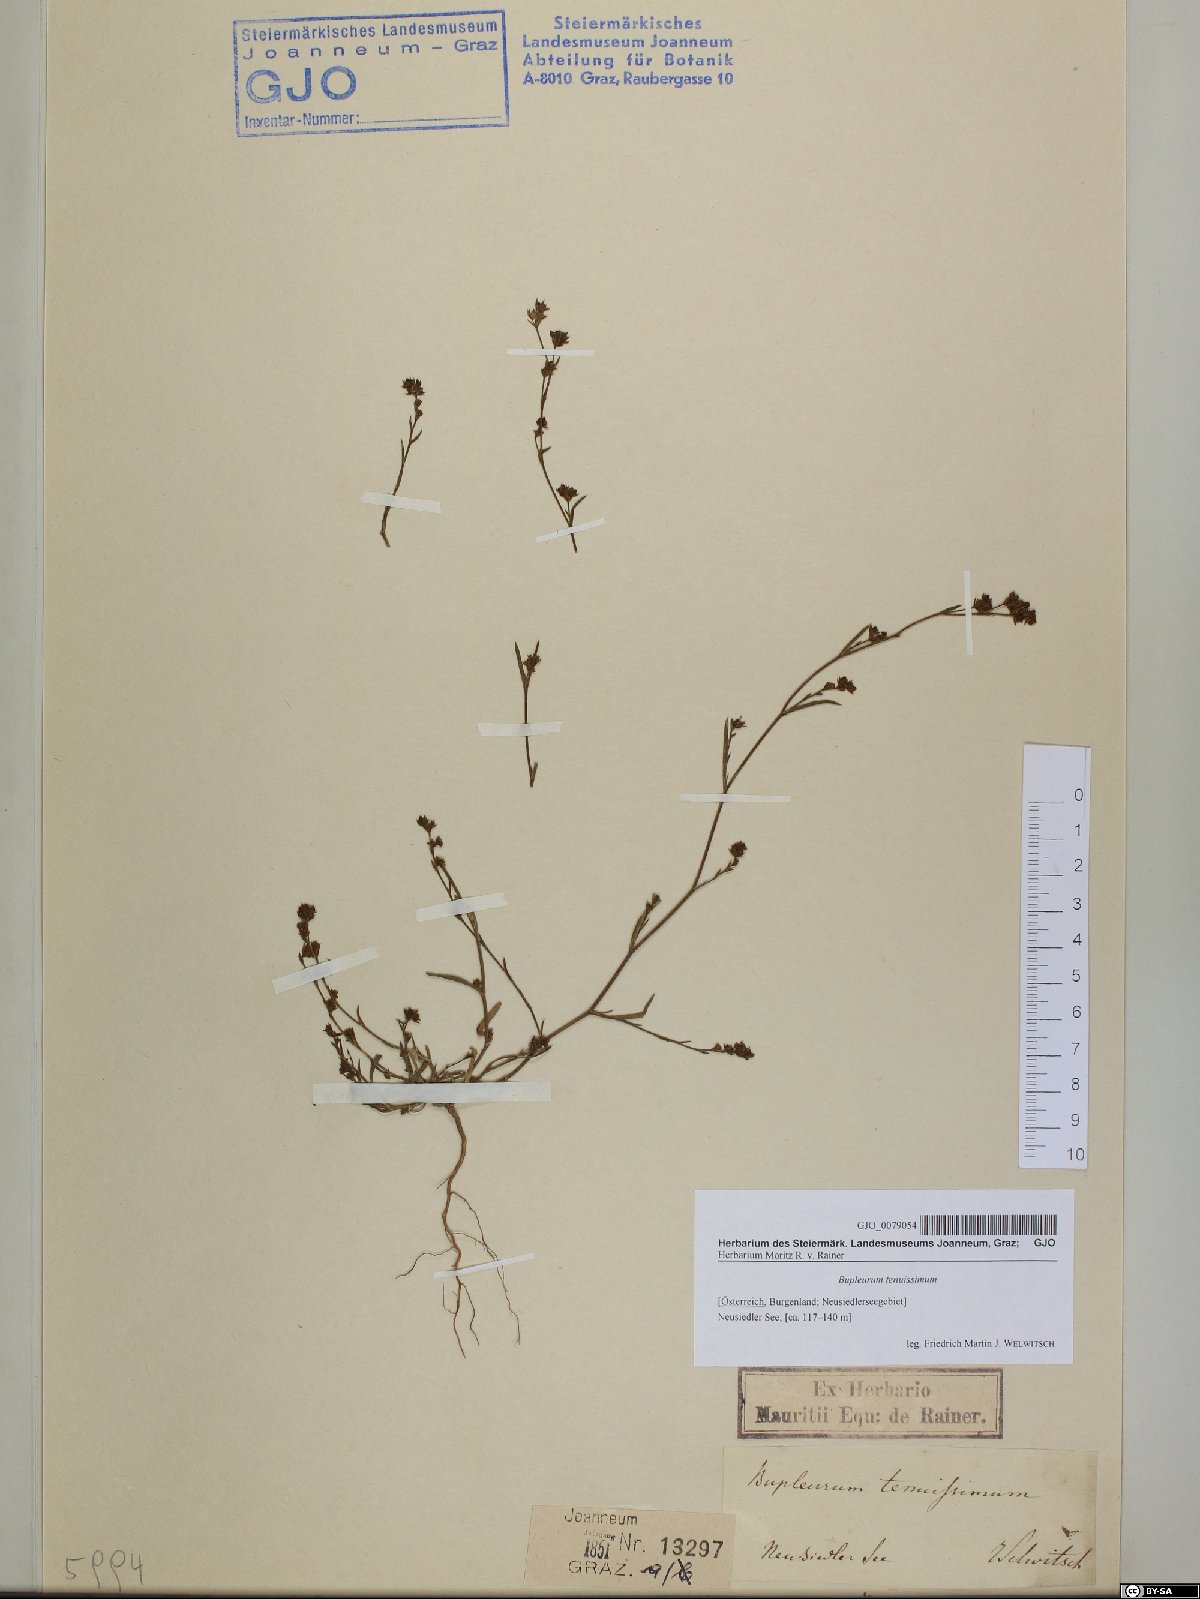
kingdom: Plantae
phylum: Tracheophyta
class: Magnoliopsida
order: Apiales
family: Apiaceae
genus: Bupleurum
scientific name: Bupleurum tenuissimum
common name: Slender hare's-ear
